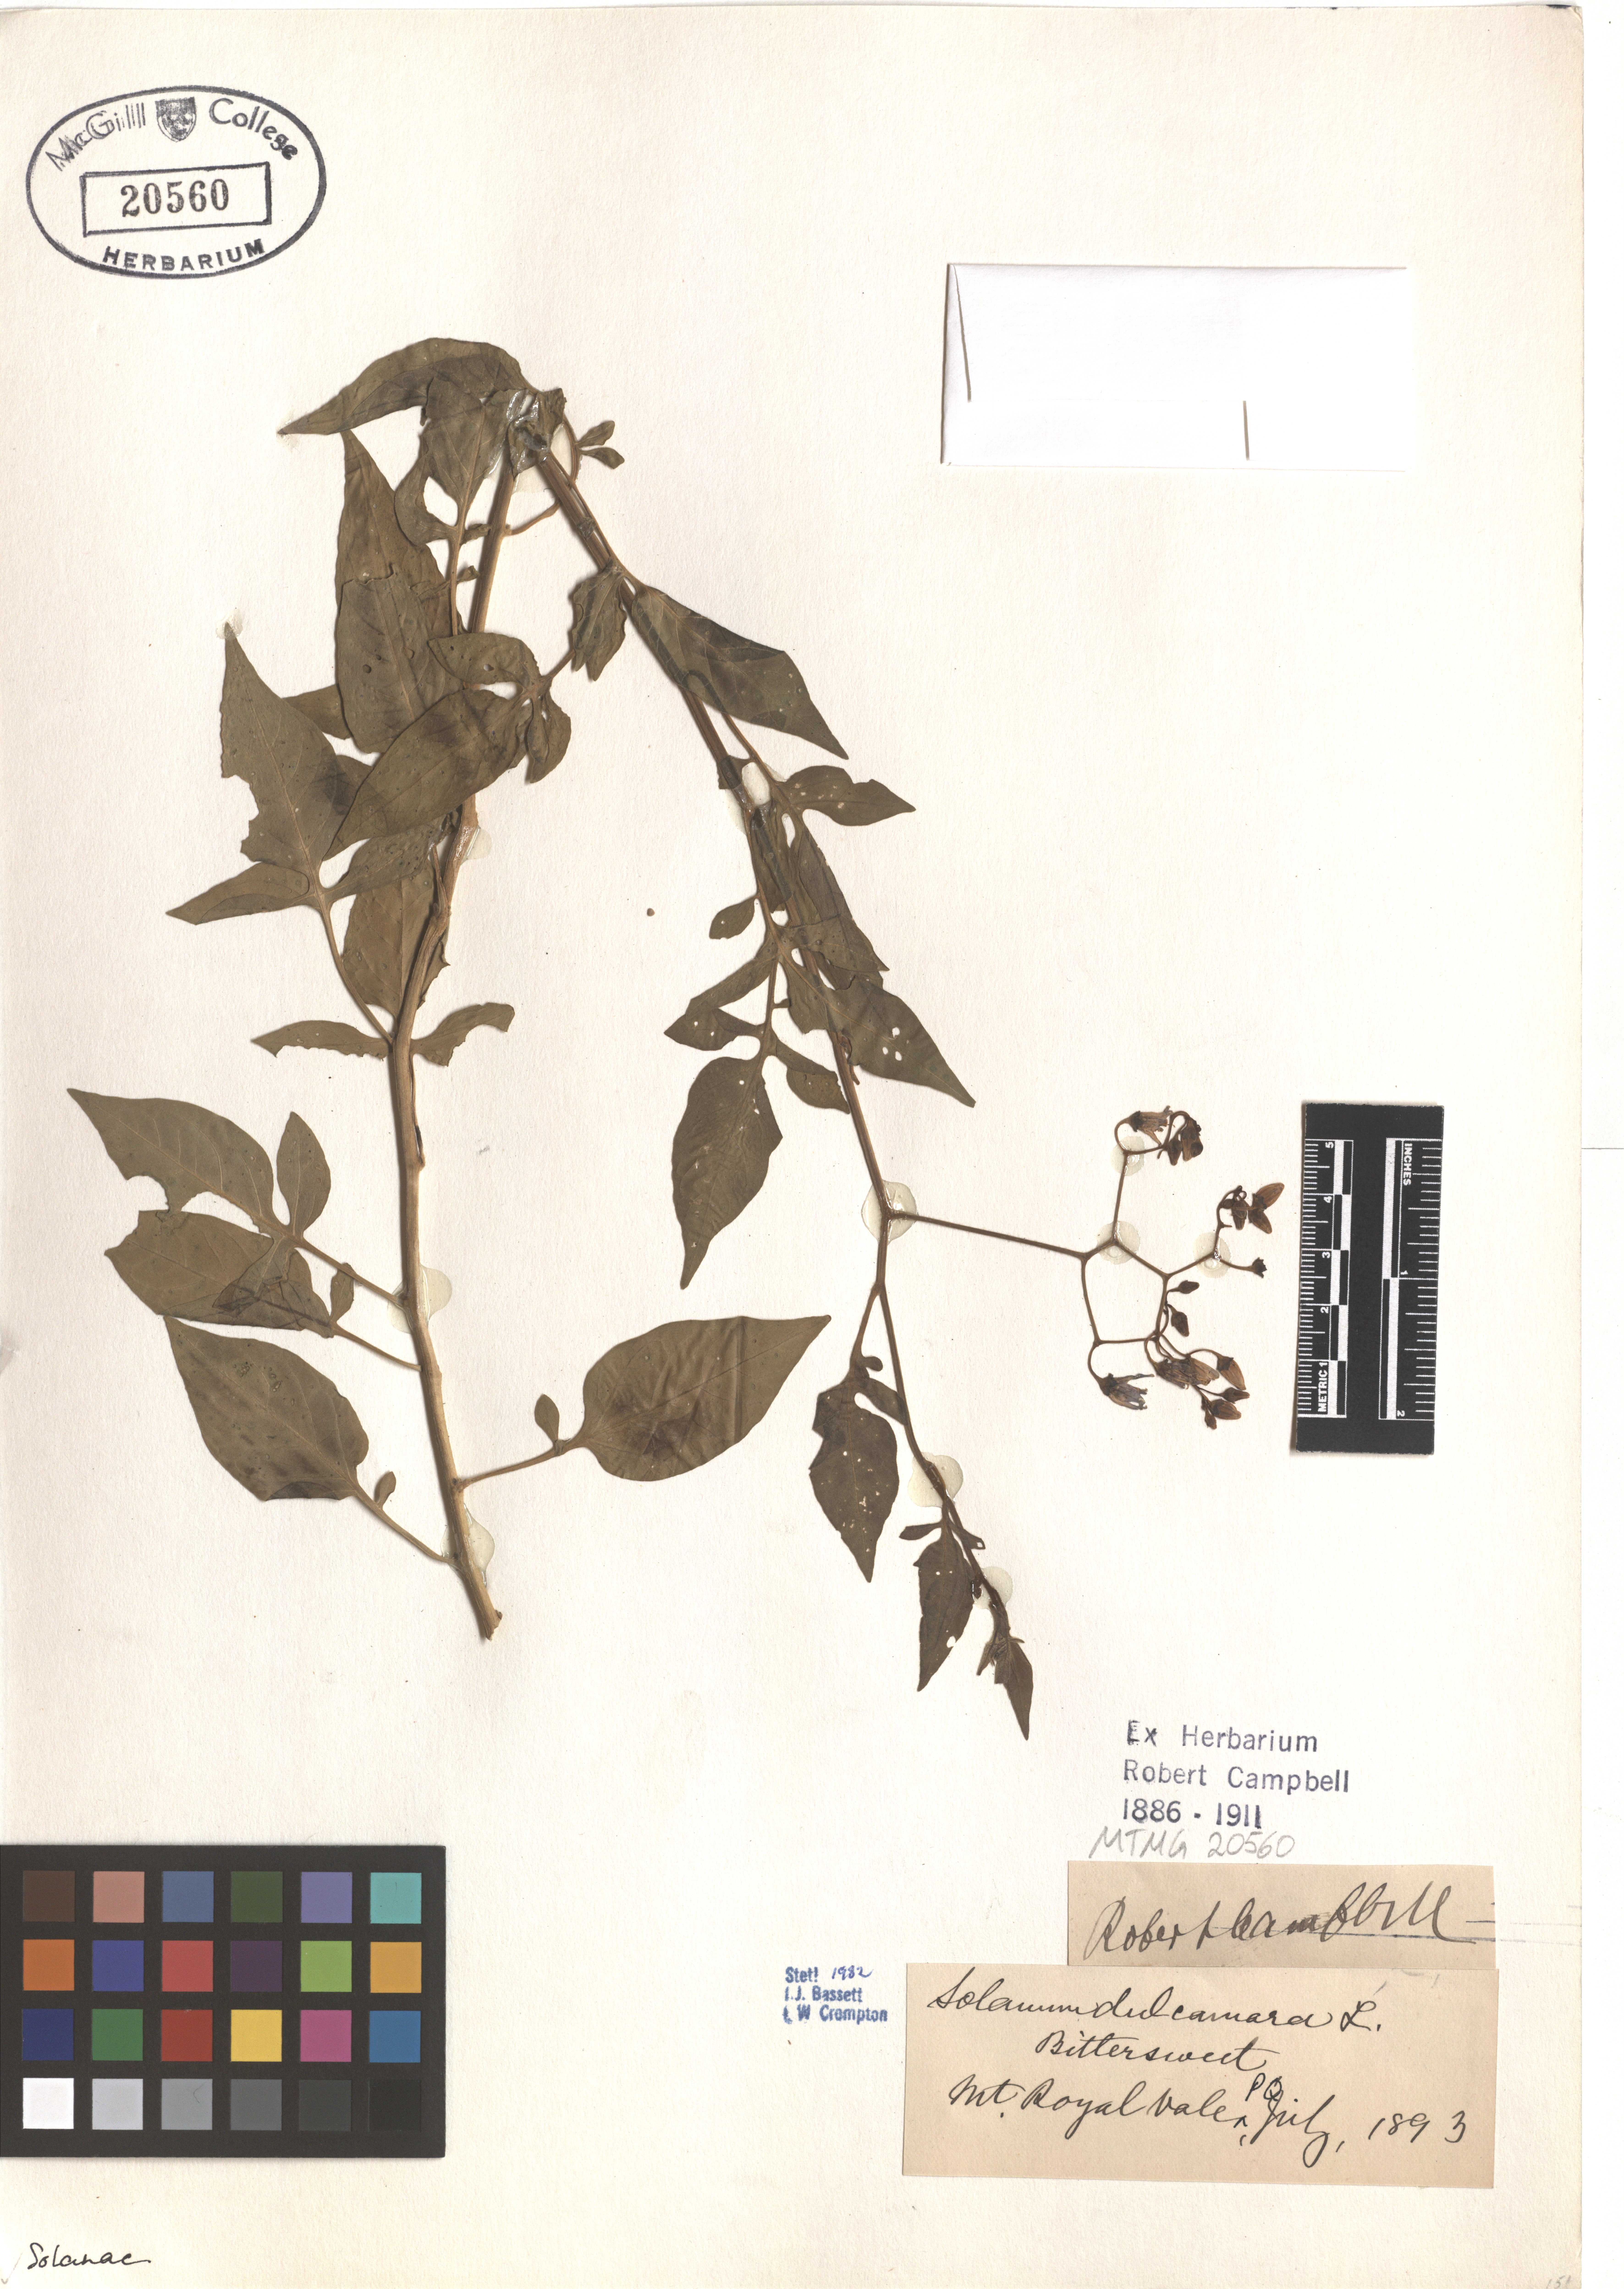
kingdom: Plantae
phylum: Tracheophyta
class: Magnoliopsida
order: Solanales
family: Solanaceae
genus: Solanum
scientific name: Solanum dulcamara
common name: Climbing nightshade
